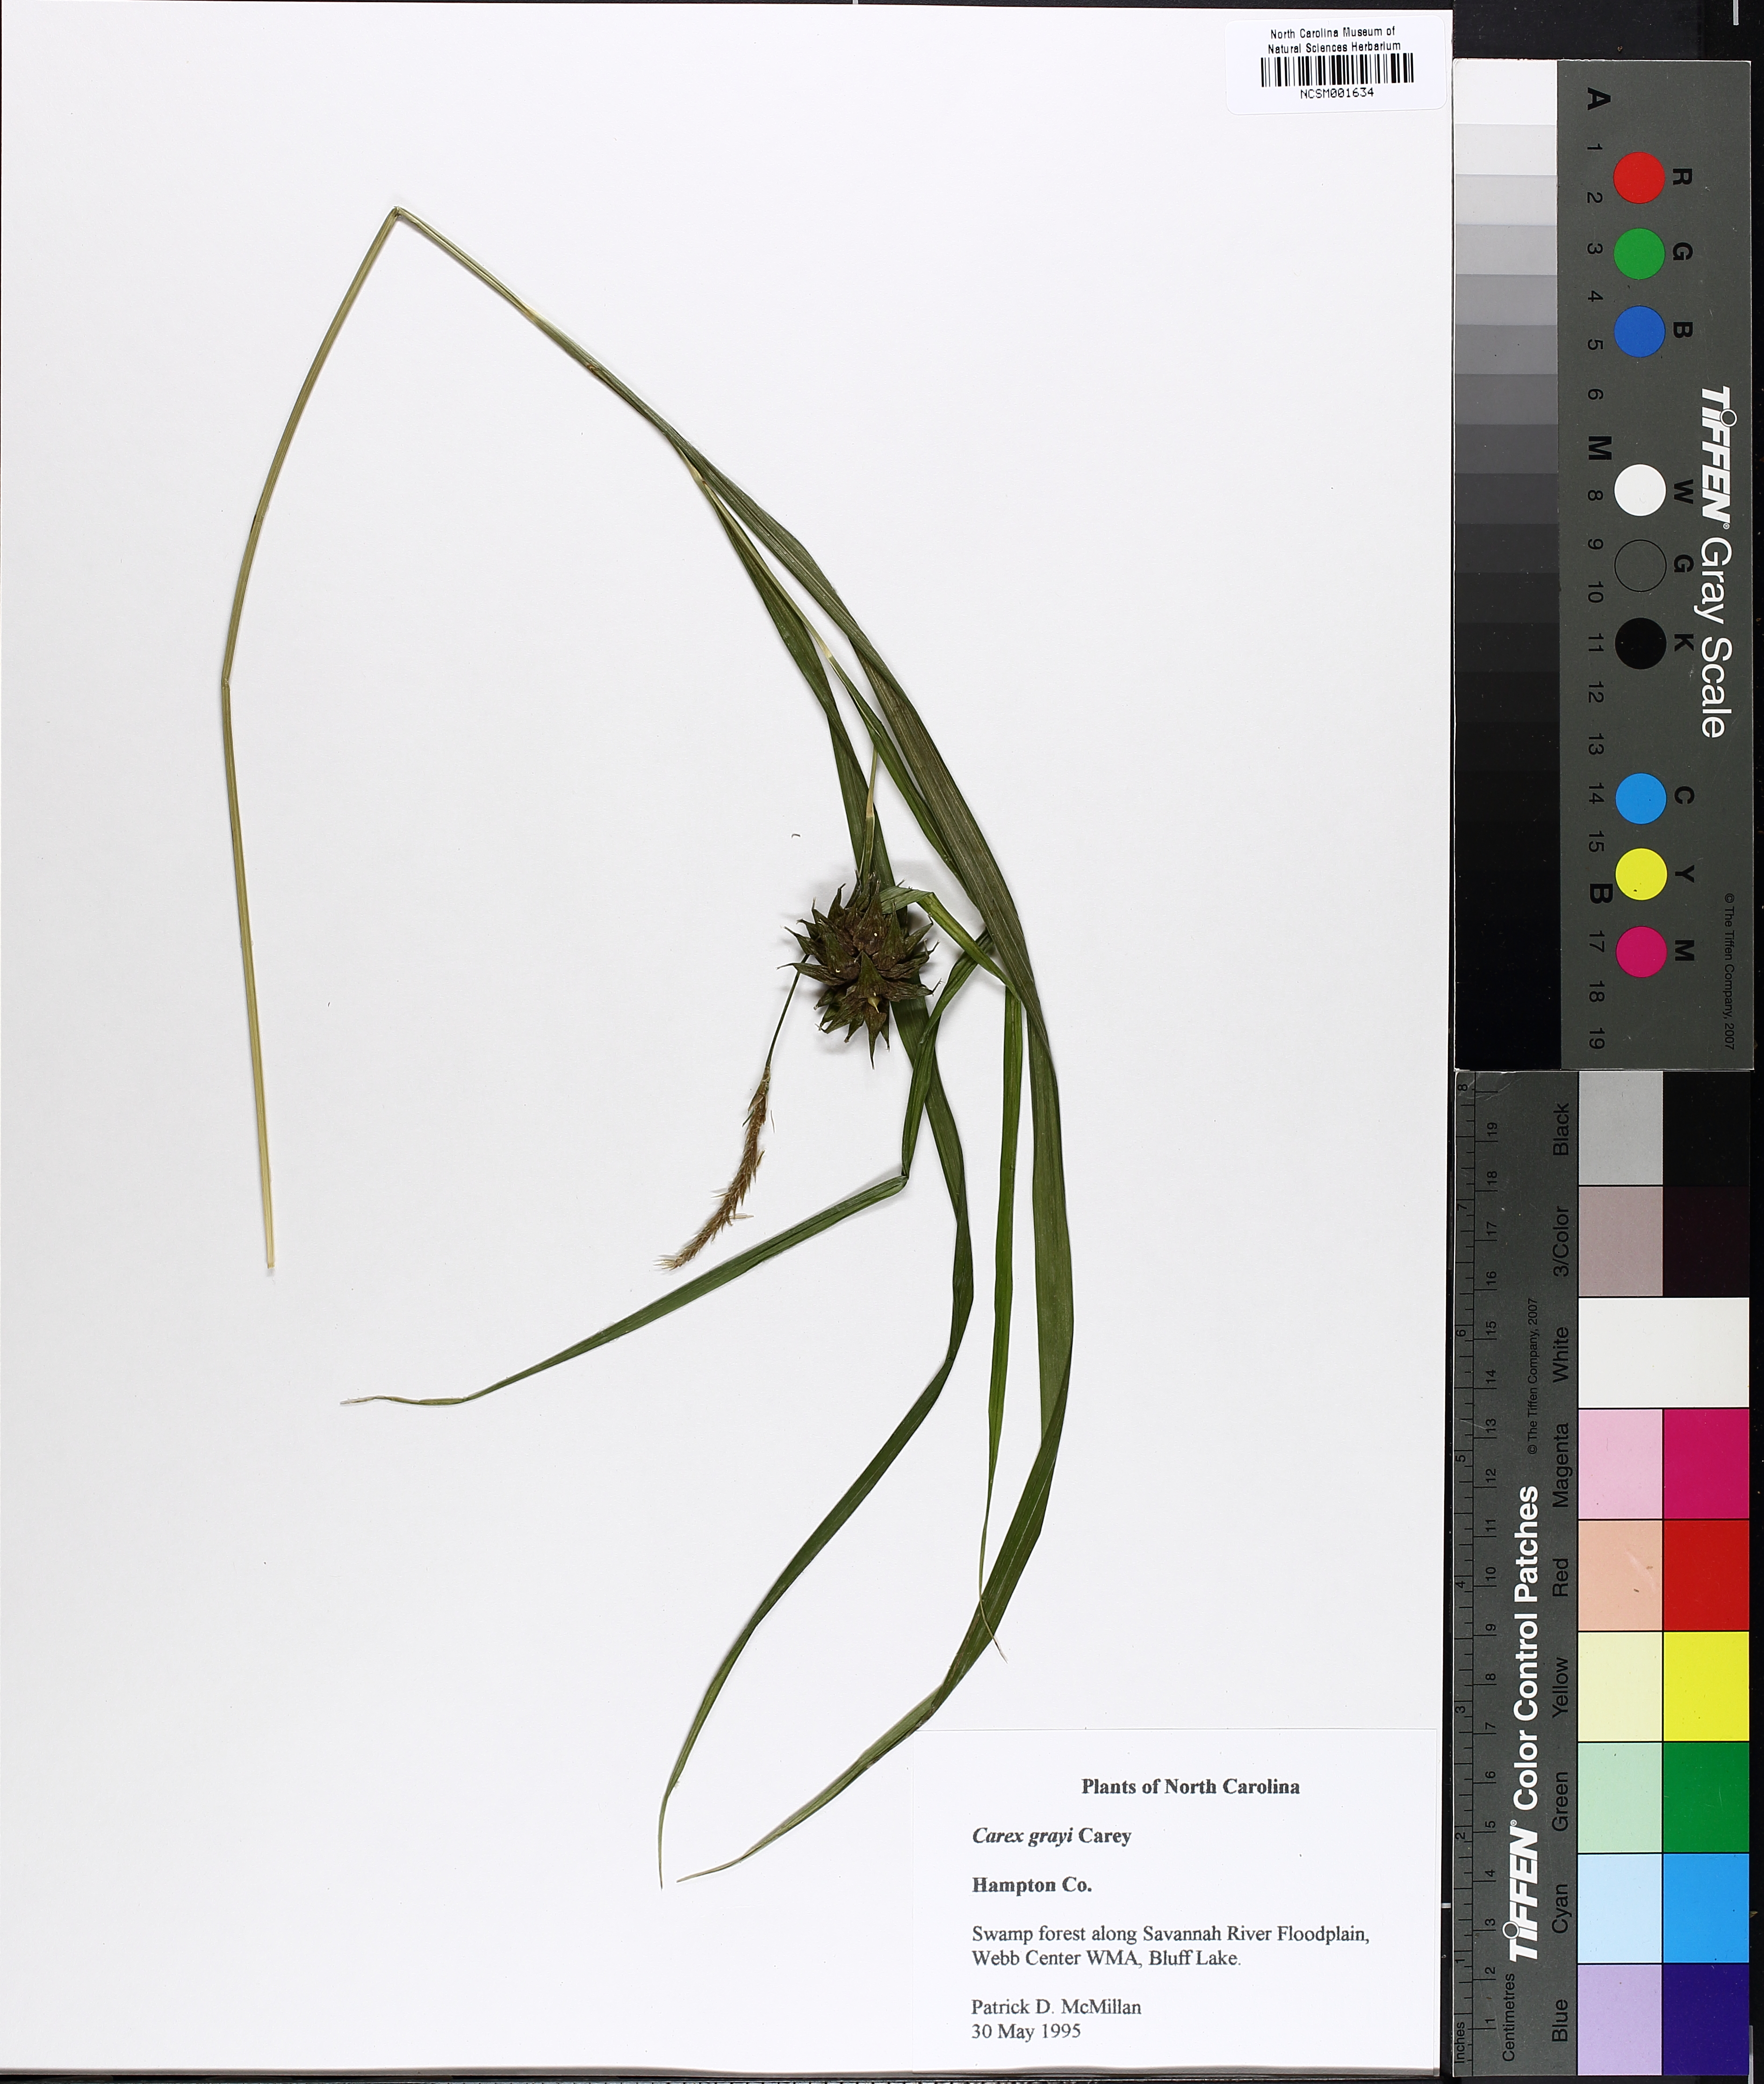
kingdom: Plantae
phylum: Tracheophyta
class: Liliopsida
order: Poales
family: Cyperaceae
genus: Carex
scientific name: Carex grayi
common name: Asa gray's sedge
